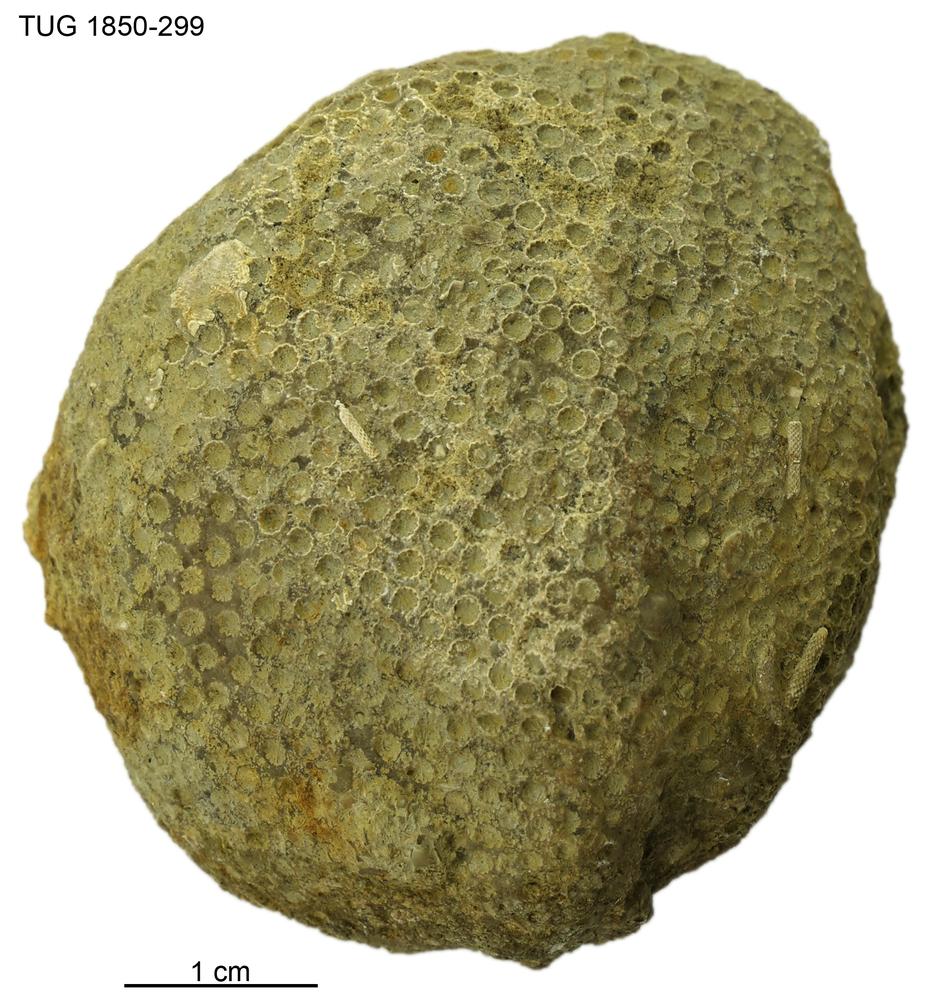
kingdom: Animalia
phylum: Cnidaria
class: Anthozoa
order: Heliolitina
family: Heliolitidae
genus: Heliolites
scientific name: Heliolites
